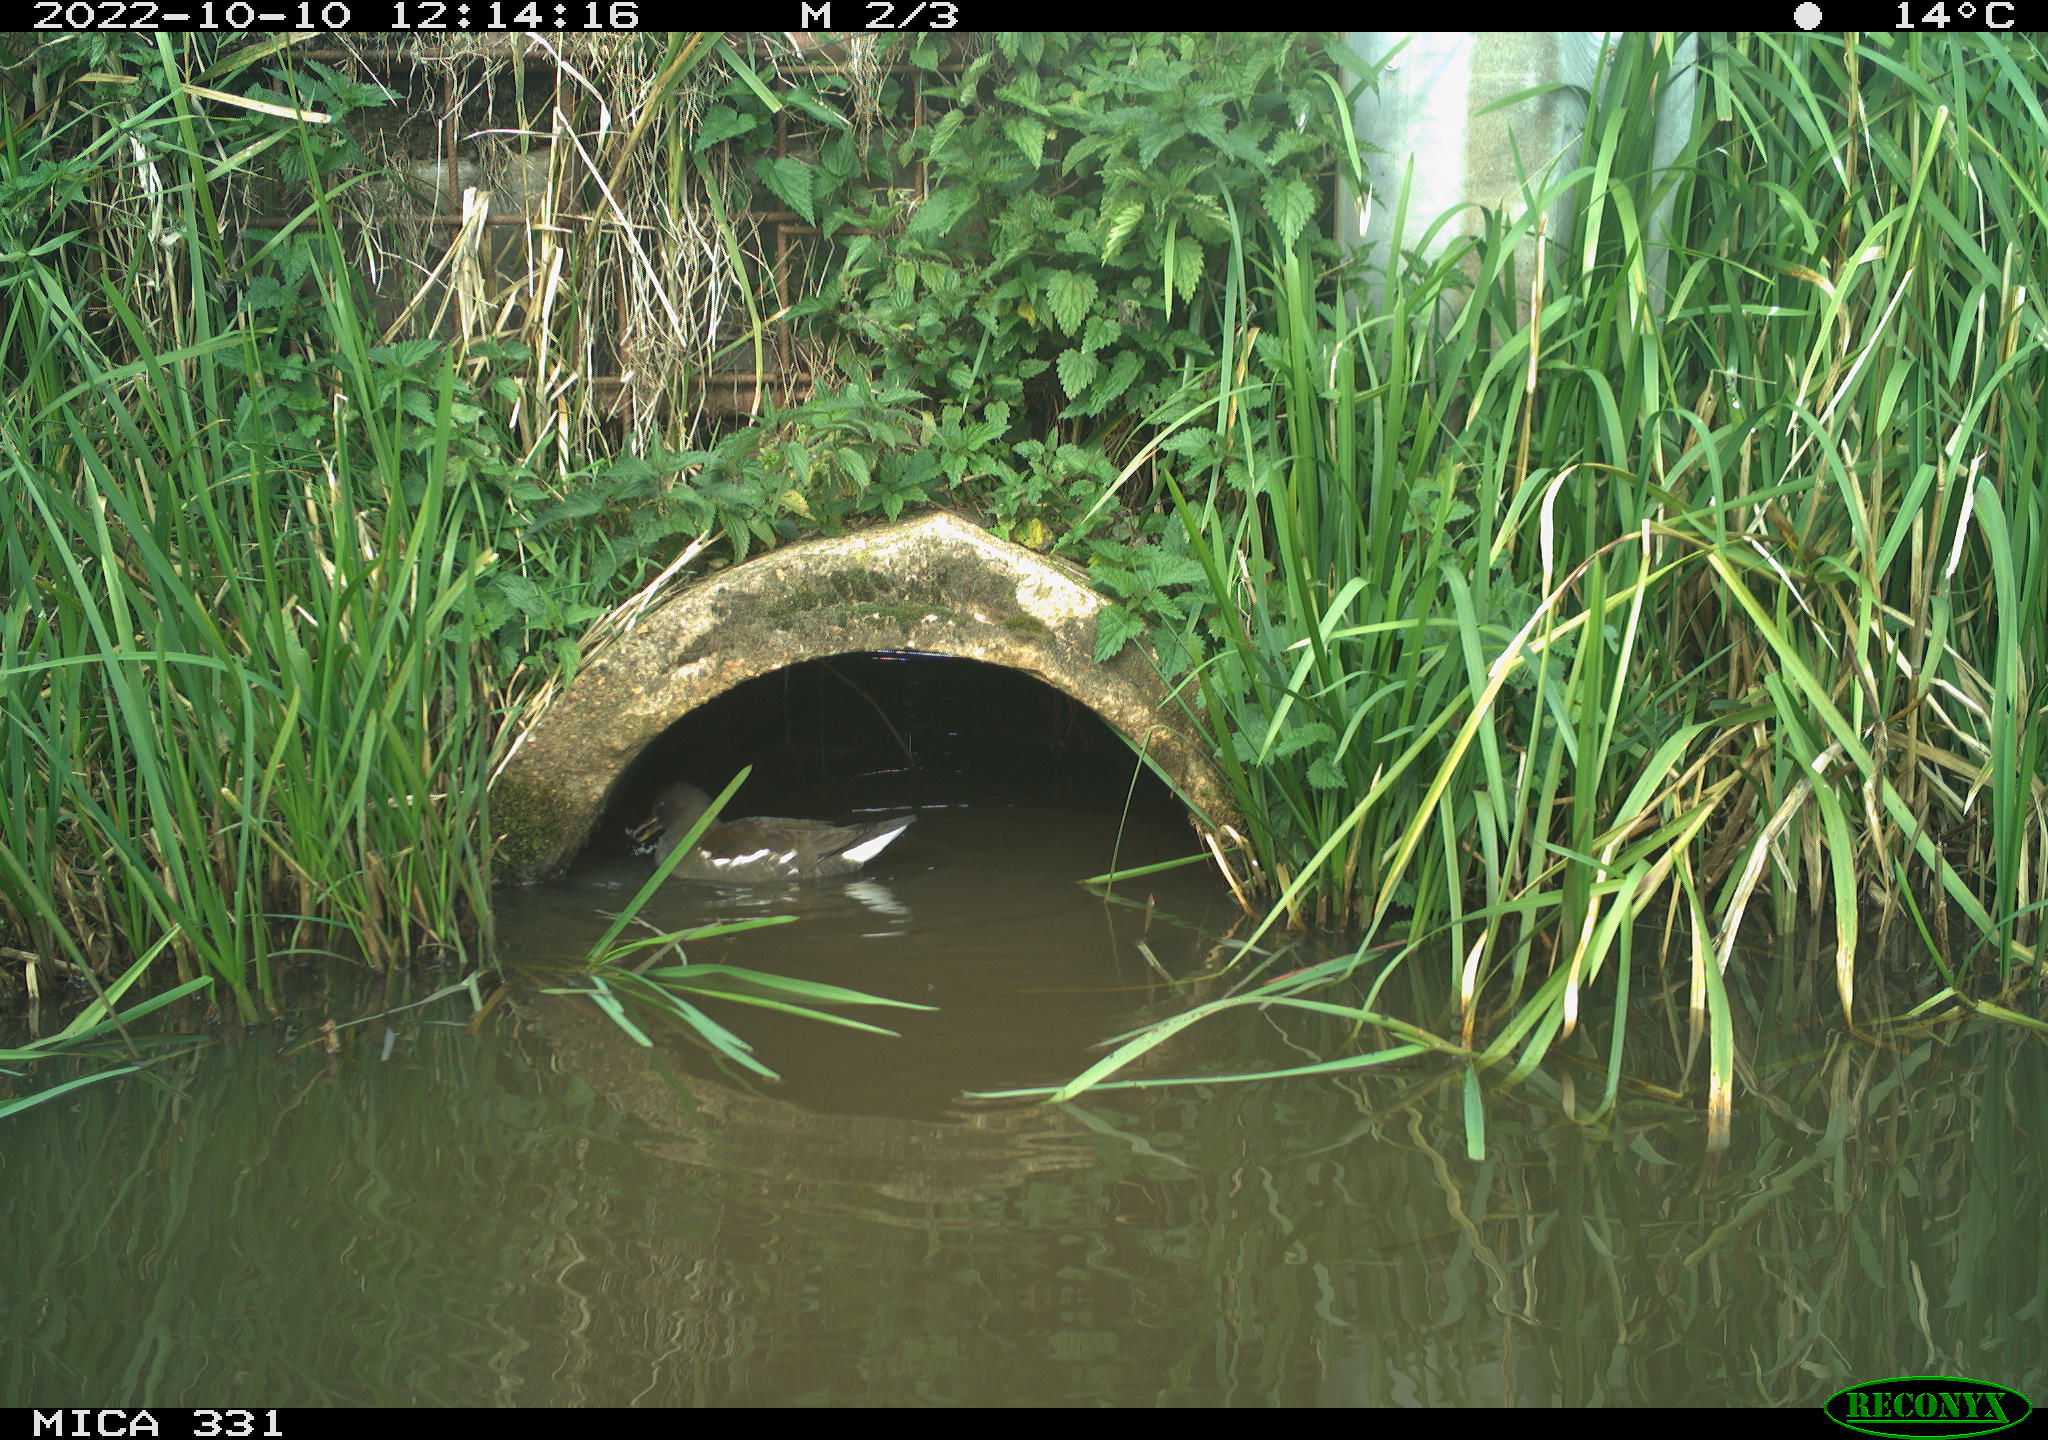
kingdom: Animalia
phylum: Chordata
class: Aves
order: Gruiformes
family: Rallidae
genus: Gallinula
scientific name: Gallinula chloropus
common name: Common moorhen
